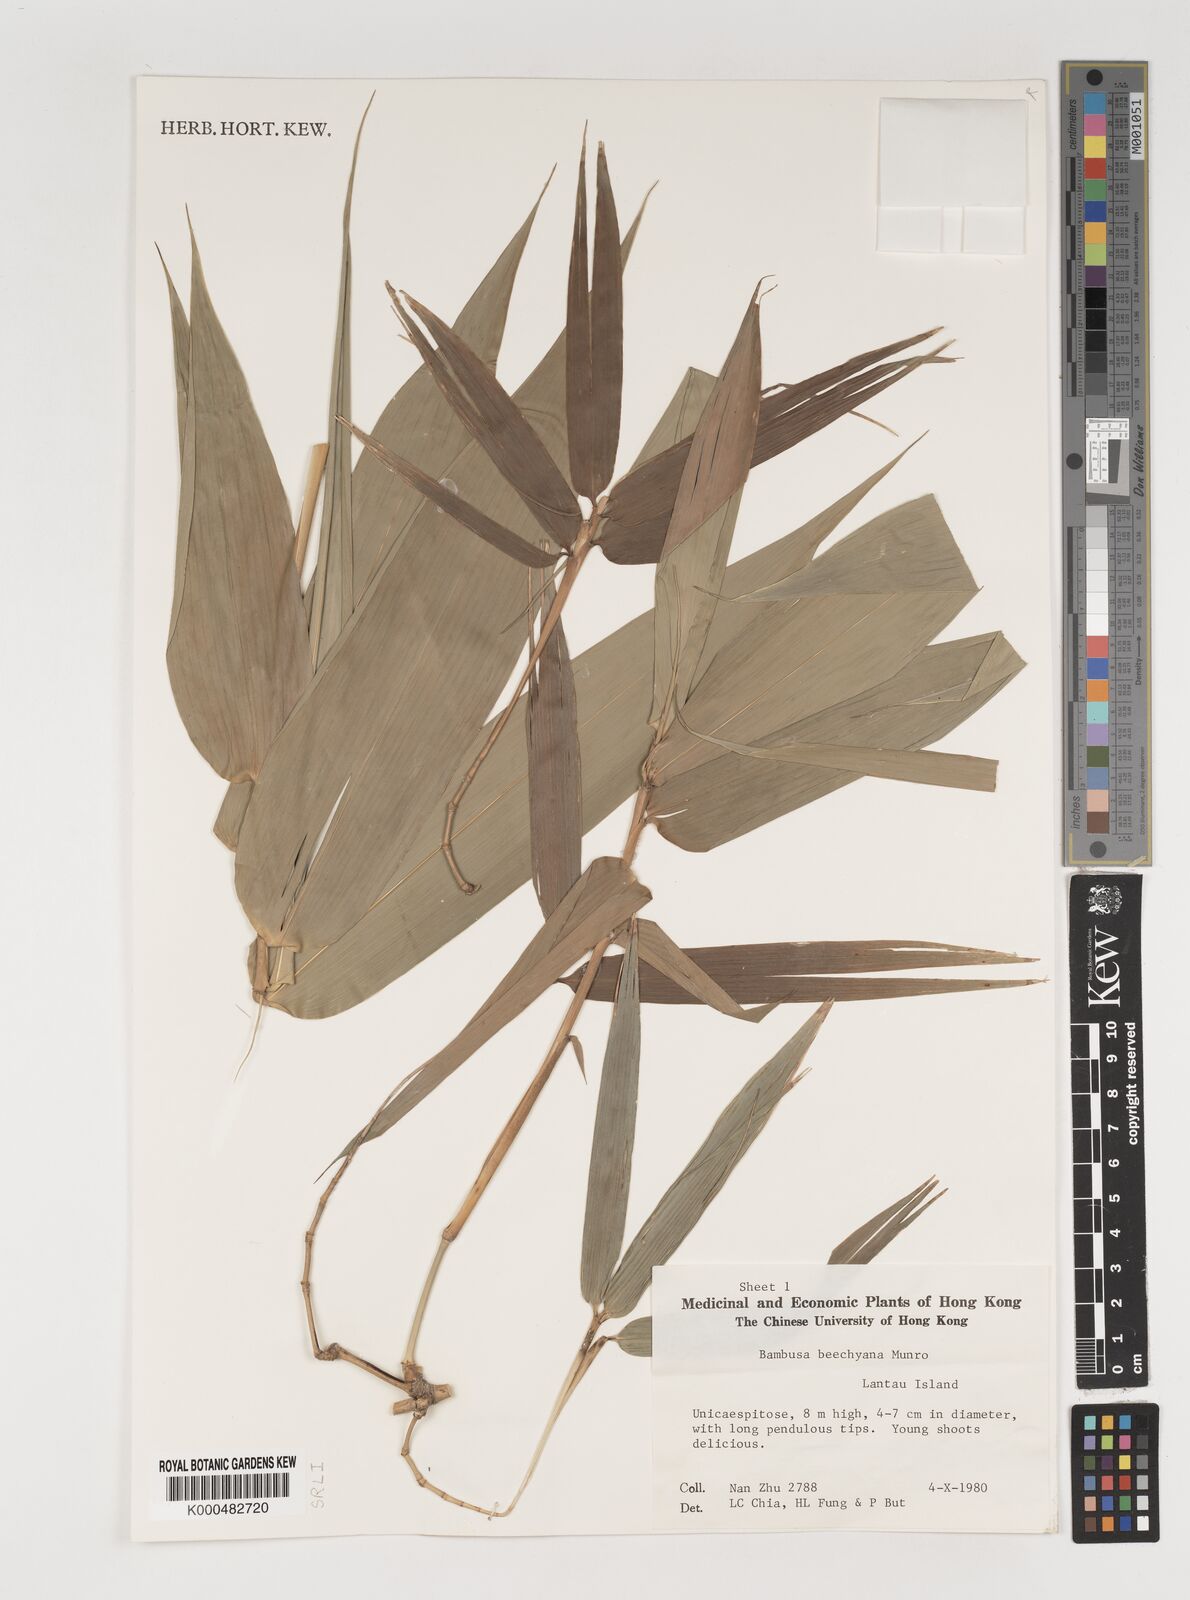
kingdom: Plantae
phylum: Tracheophyta
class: Liliopsida
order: Poales
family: Poaceae
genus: Bambusa
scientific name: Bambusa beecheyana
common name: Beechey's bamboo
